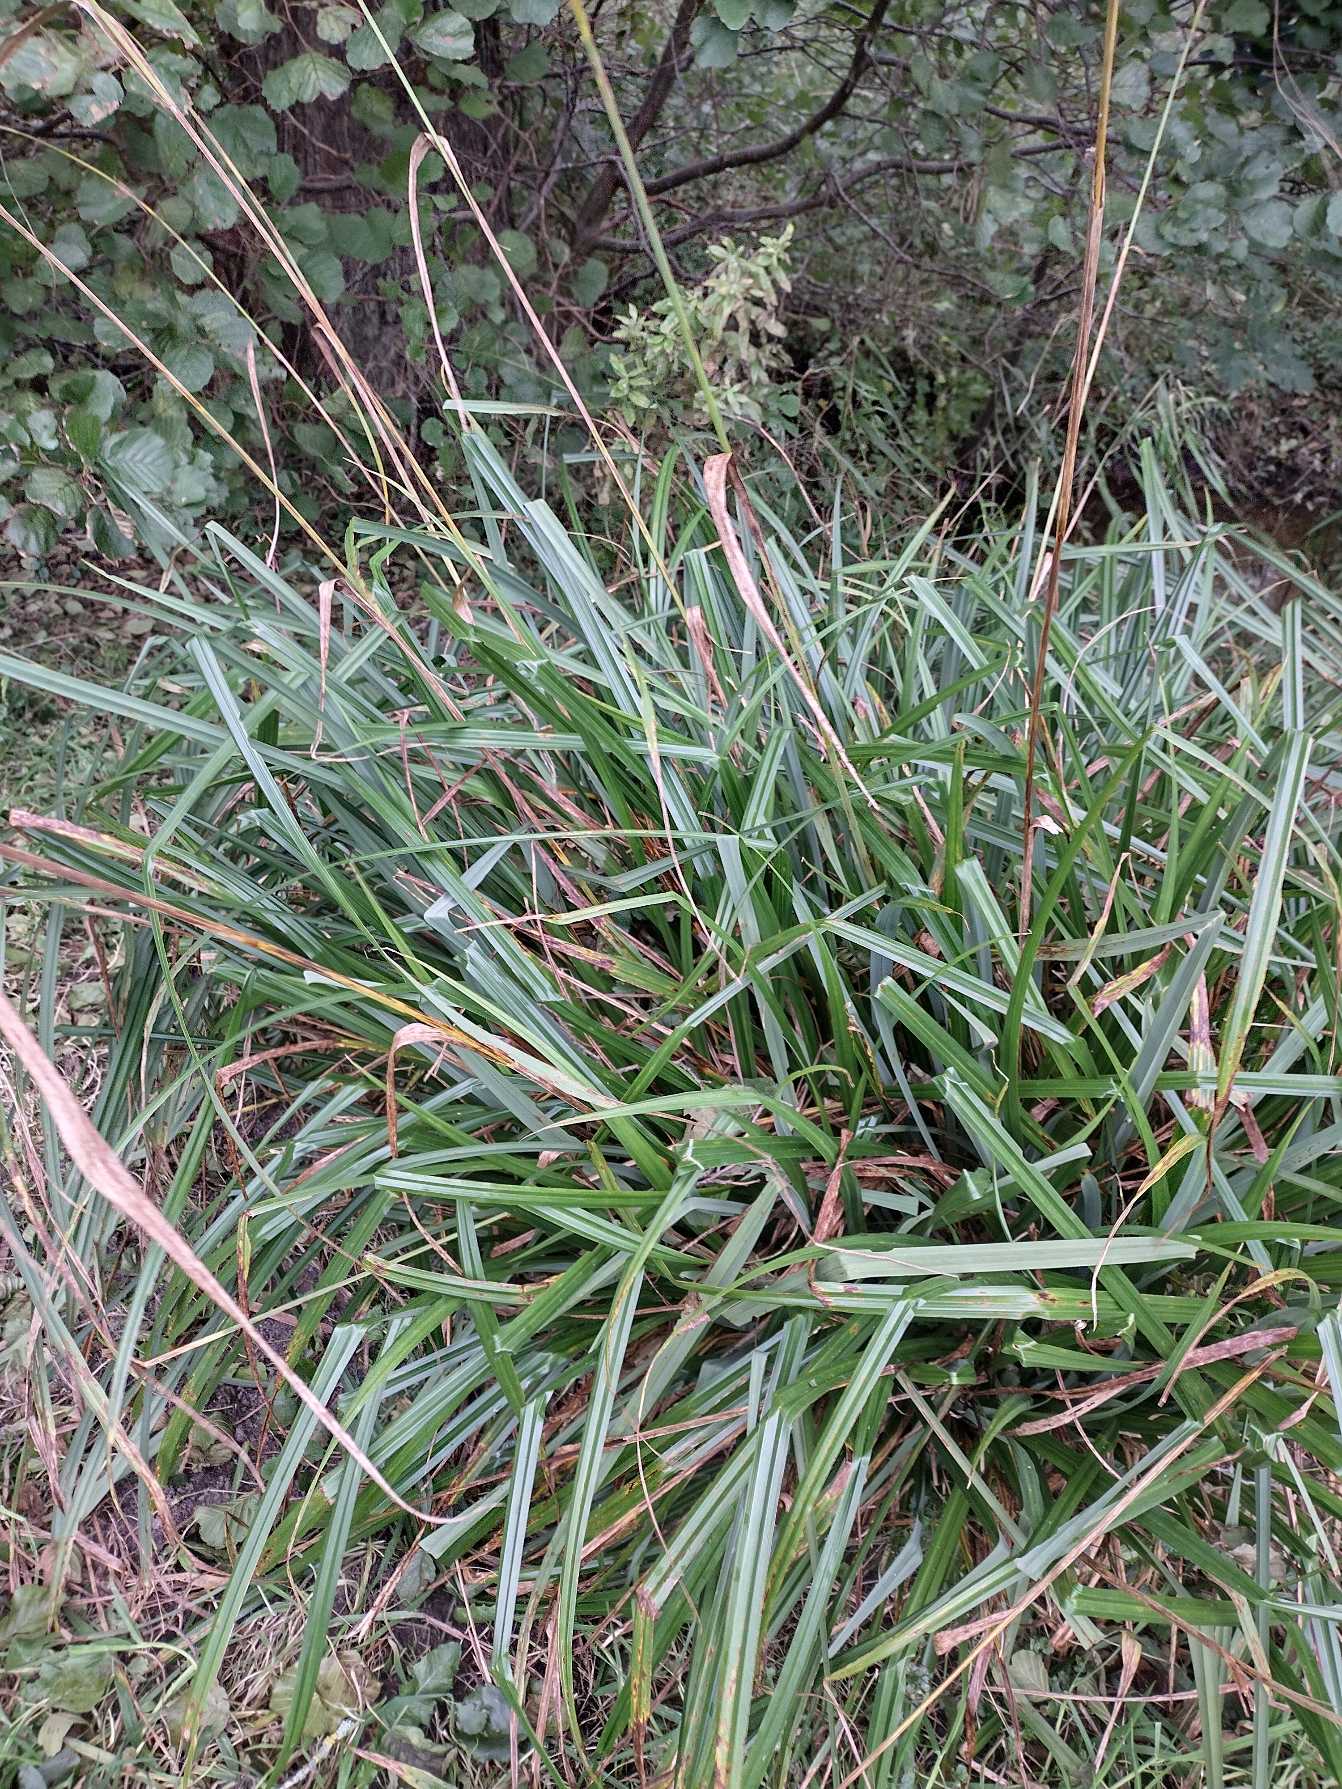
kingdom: Plantae
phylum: Tracheophyta
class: Liliopsida
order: Poales
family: Cyperaceae
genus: Carex
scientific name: Carex pendula
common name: Kæmpe-star
